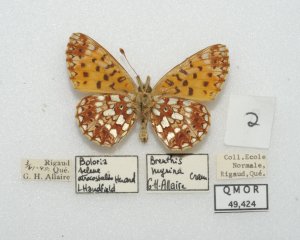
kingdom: Animalia
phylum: Arthropoda
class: Insecta
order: Lepidoptera
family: Nymphalidae
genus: Boloria
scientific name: Boloria selene
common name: Silver-bordered Fritillary
